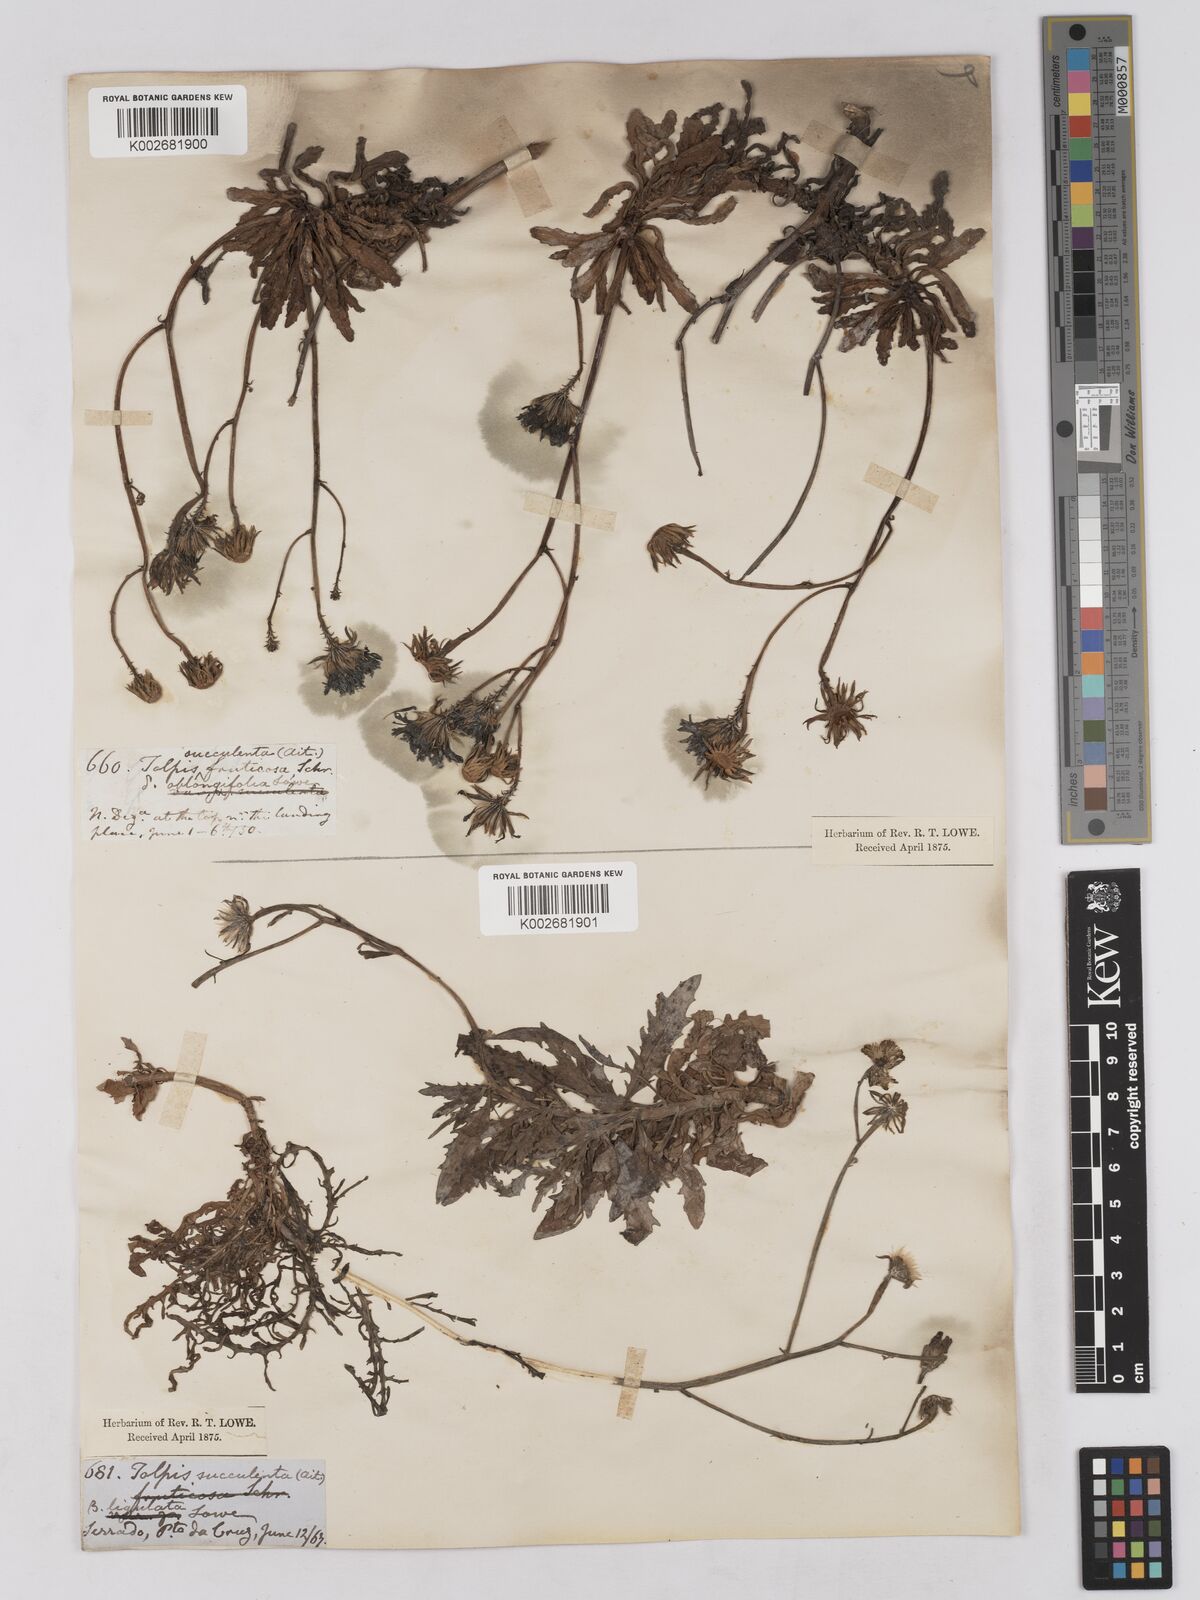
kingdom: Plantae
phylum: Tracheophyta
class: Magnoliopsida
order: Asterales
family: Asteraceae
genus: Tolpis
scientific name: Tolpis succulenta
